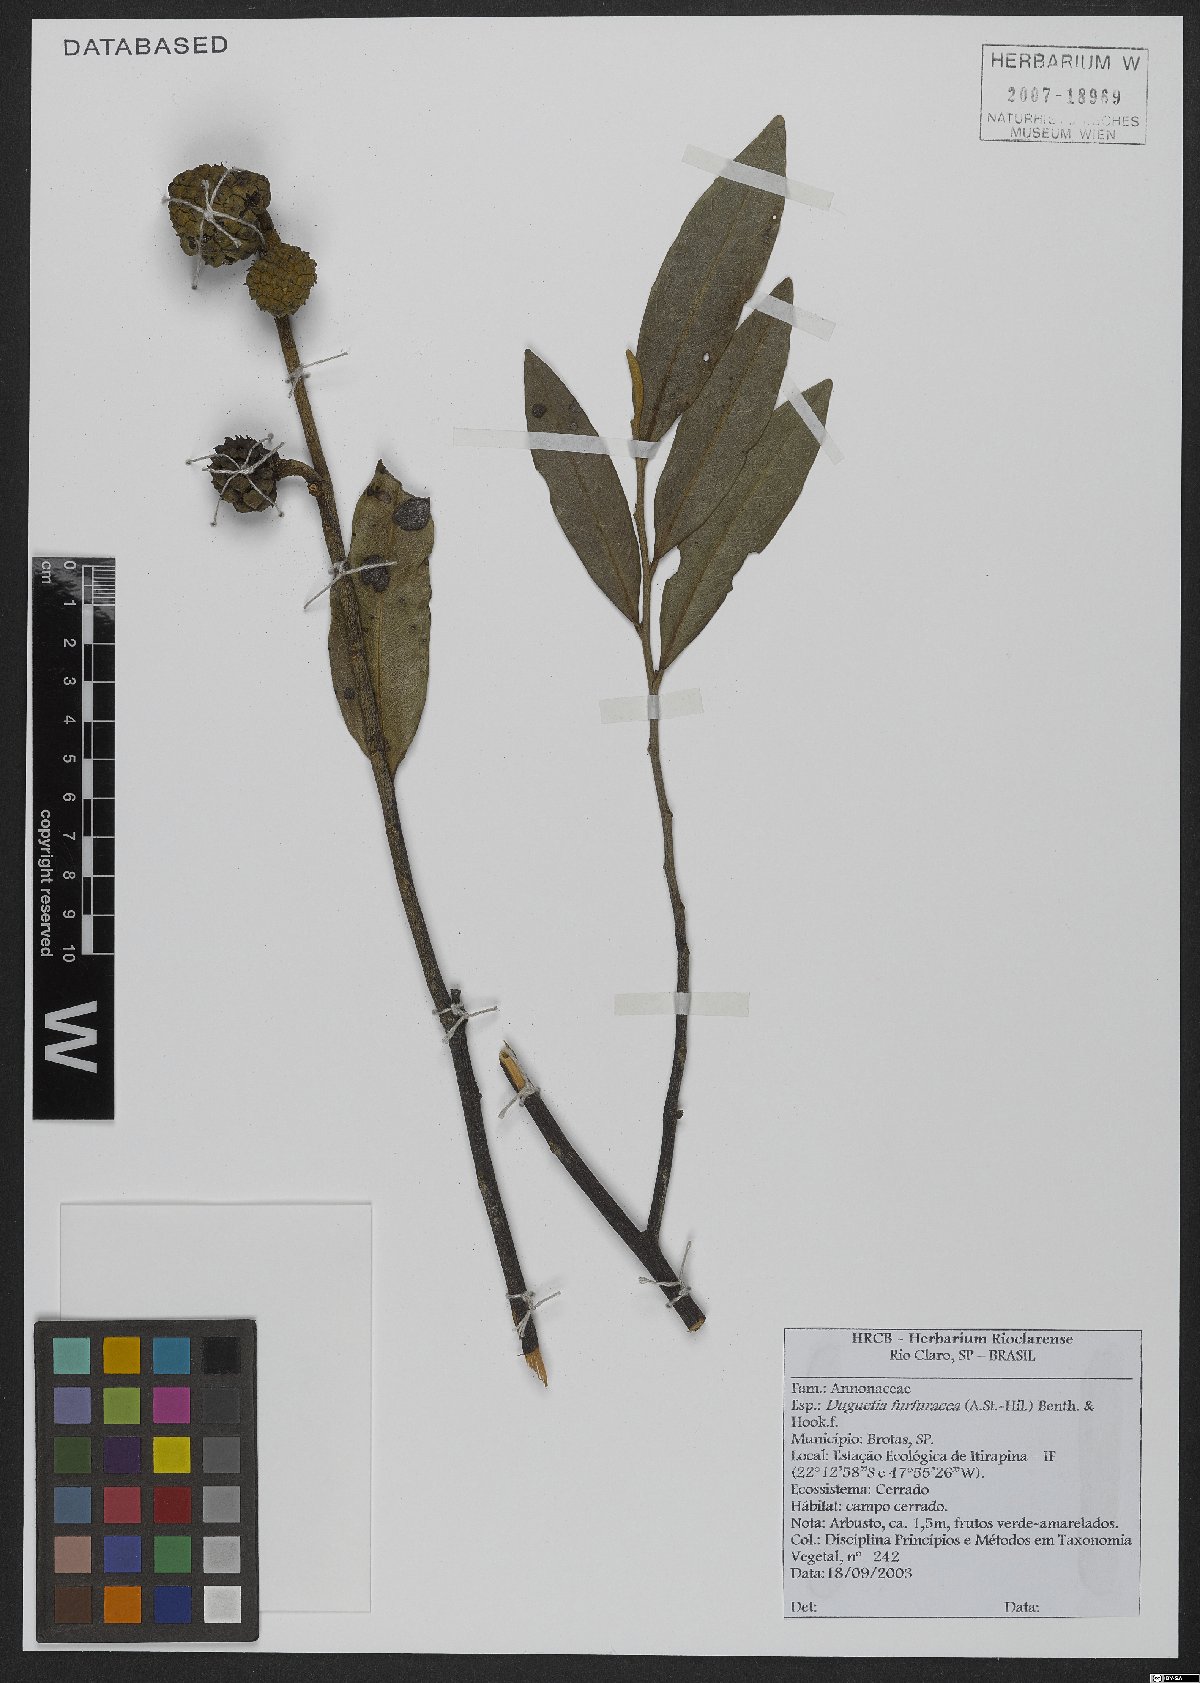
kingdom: Plantae
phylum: Tracheophyta
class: Magnoliopsida
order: Magnoliales
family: Annonaceae
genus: Duguetia
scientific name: Duguetia furfuracea
